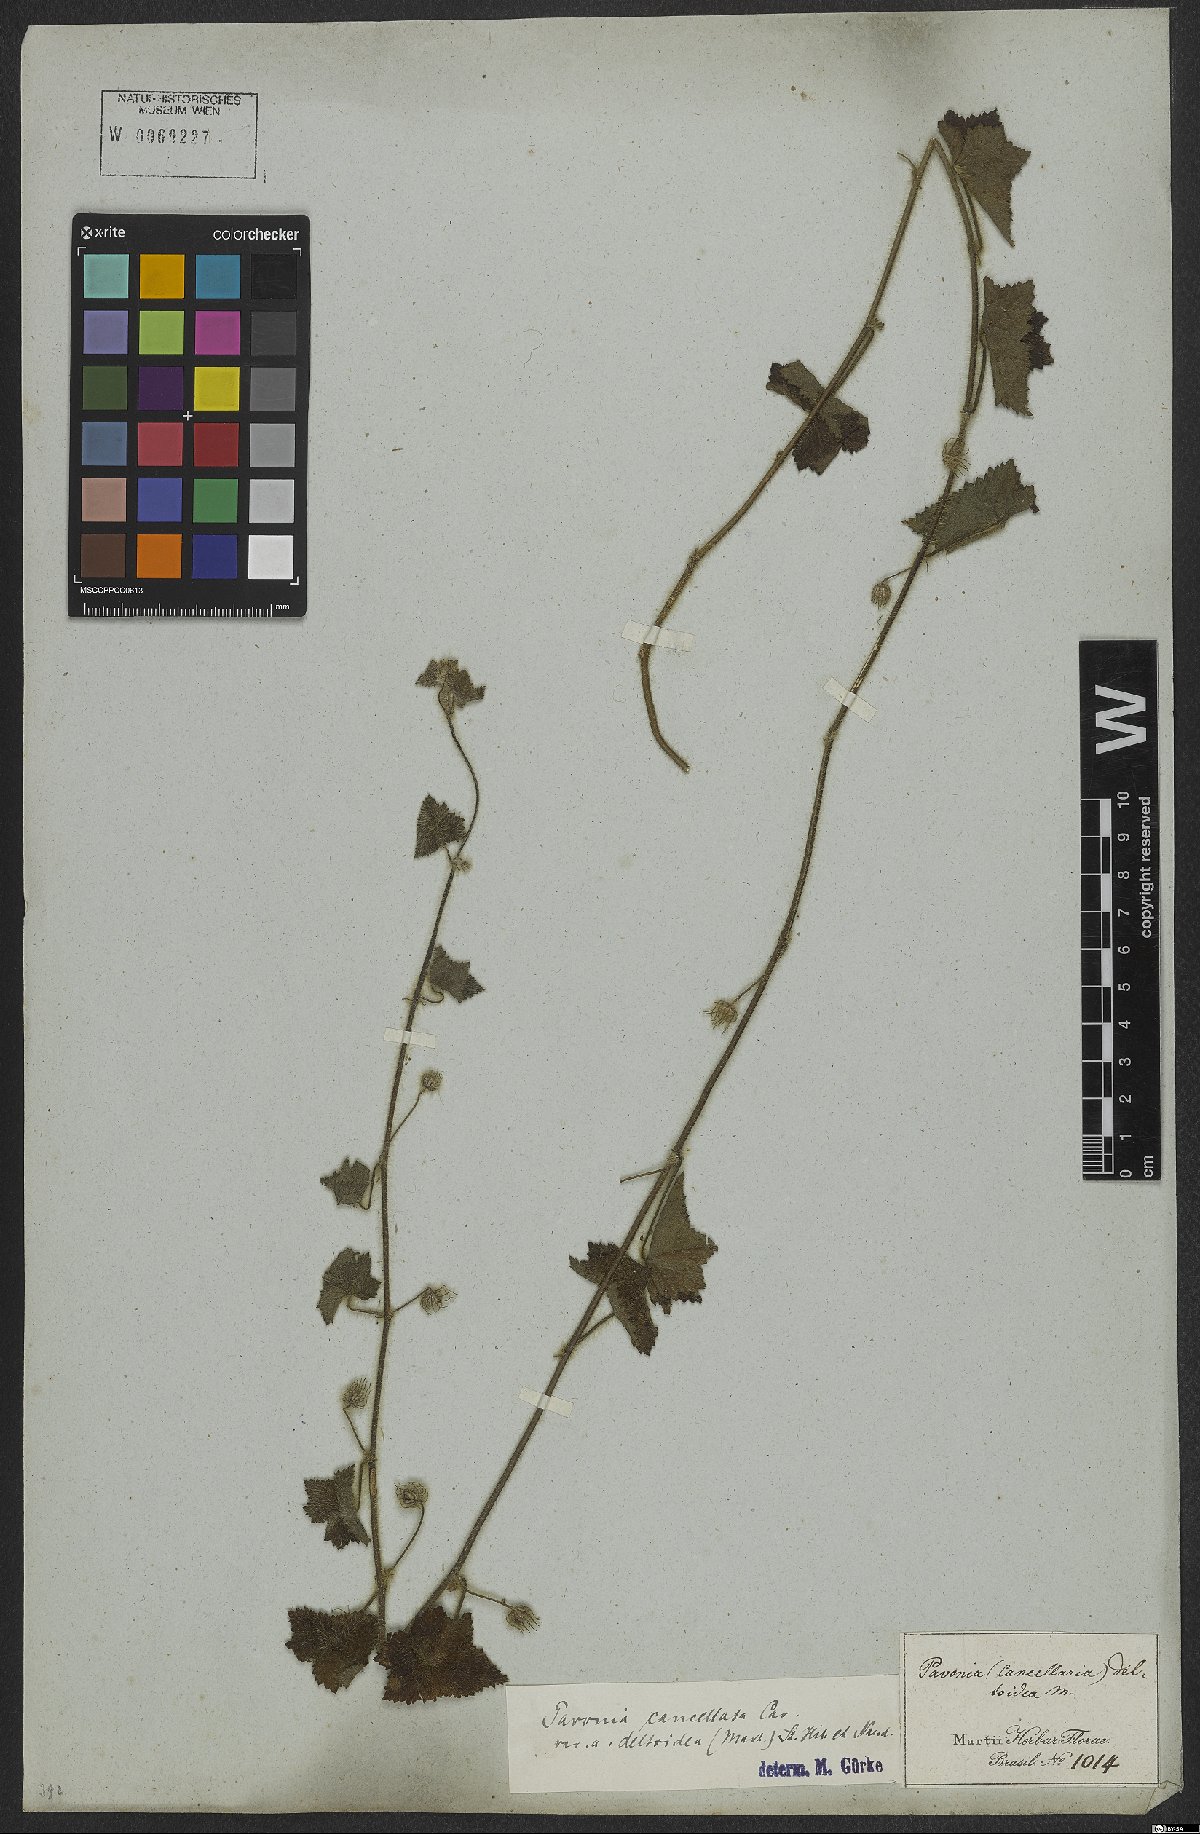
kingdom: Plantae
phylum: Tracheophyta
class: Magnoliopsida
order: Malvales
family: Malvaceae
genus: Pavonia
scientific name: Pavonia cancellata
